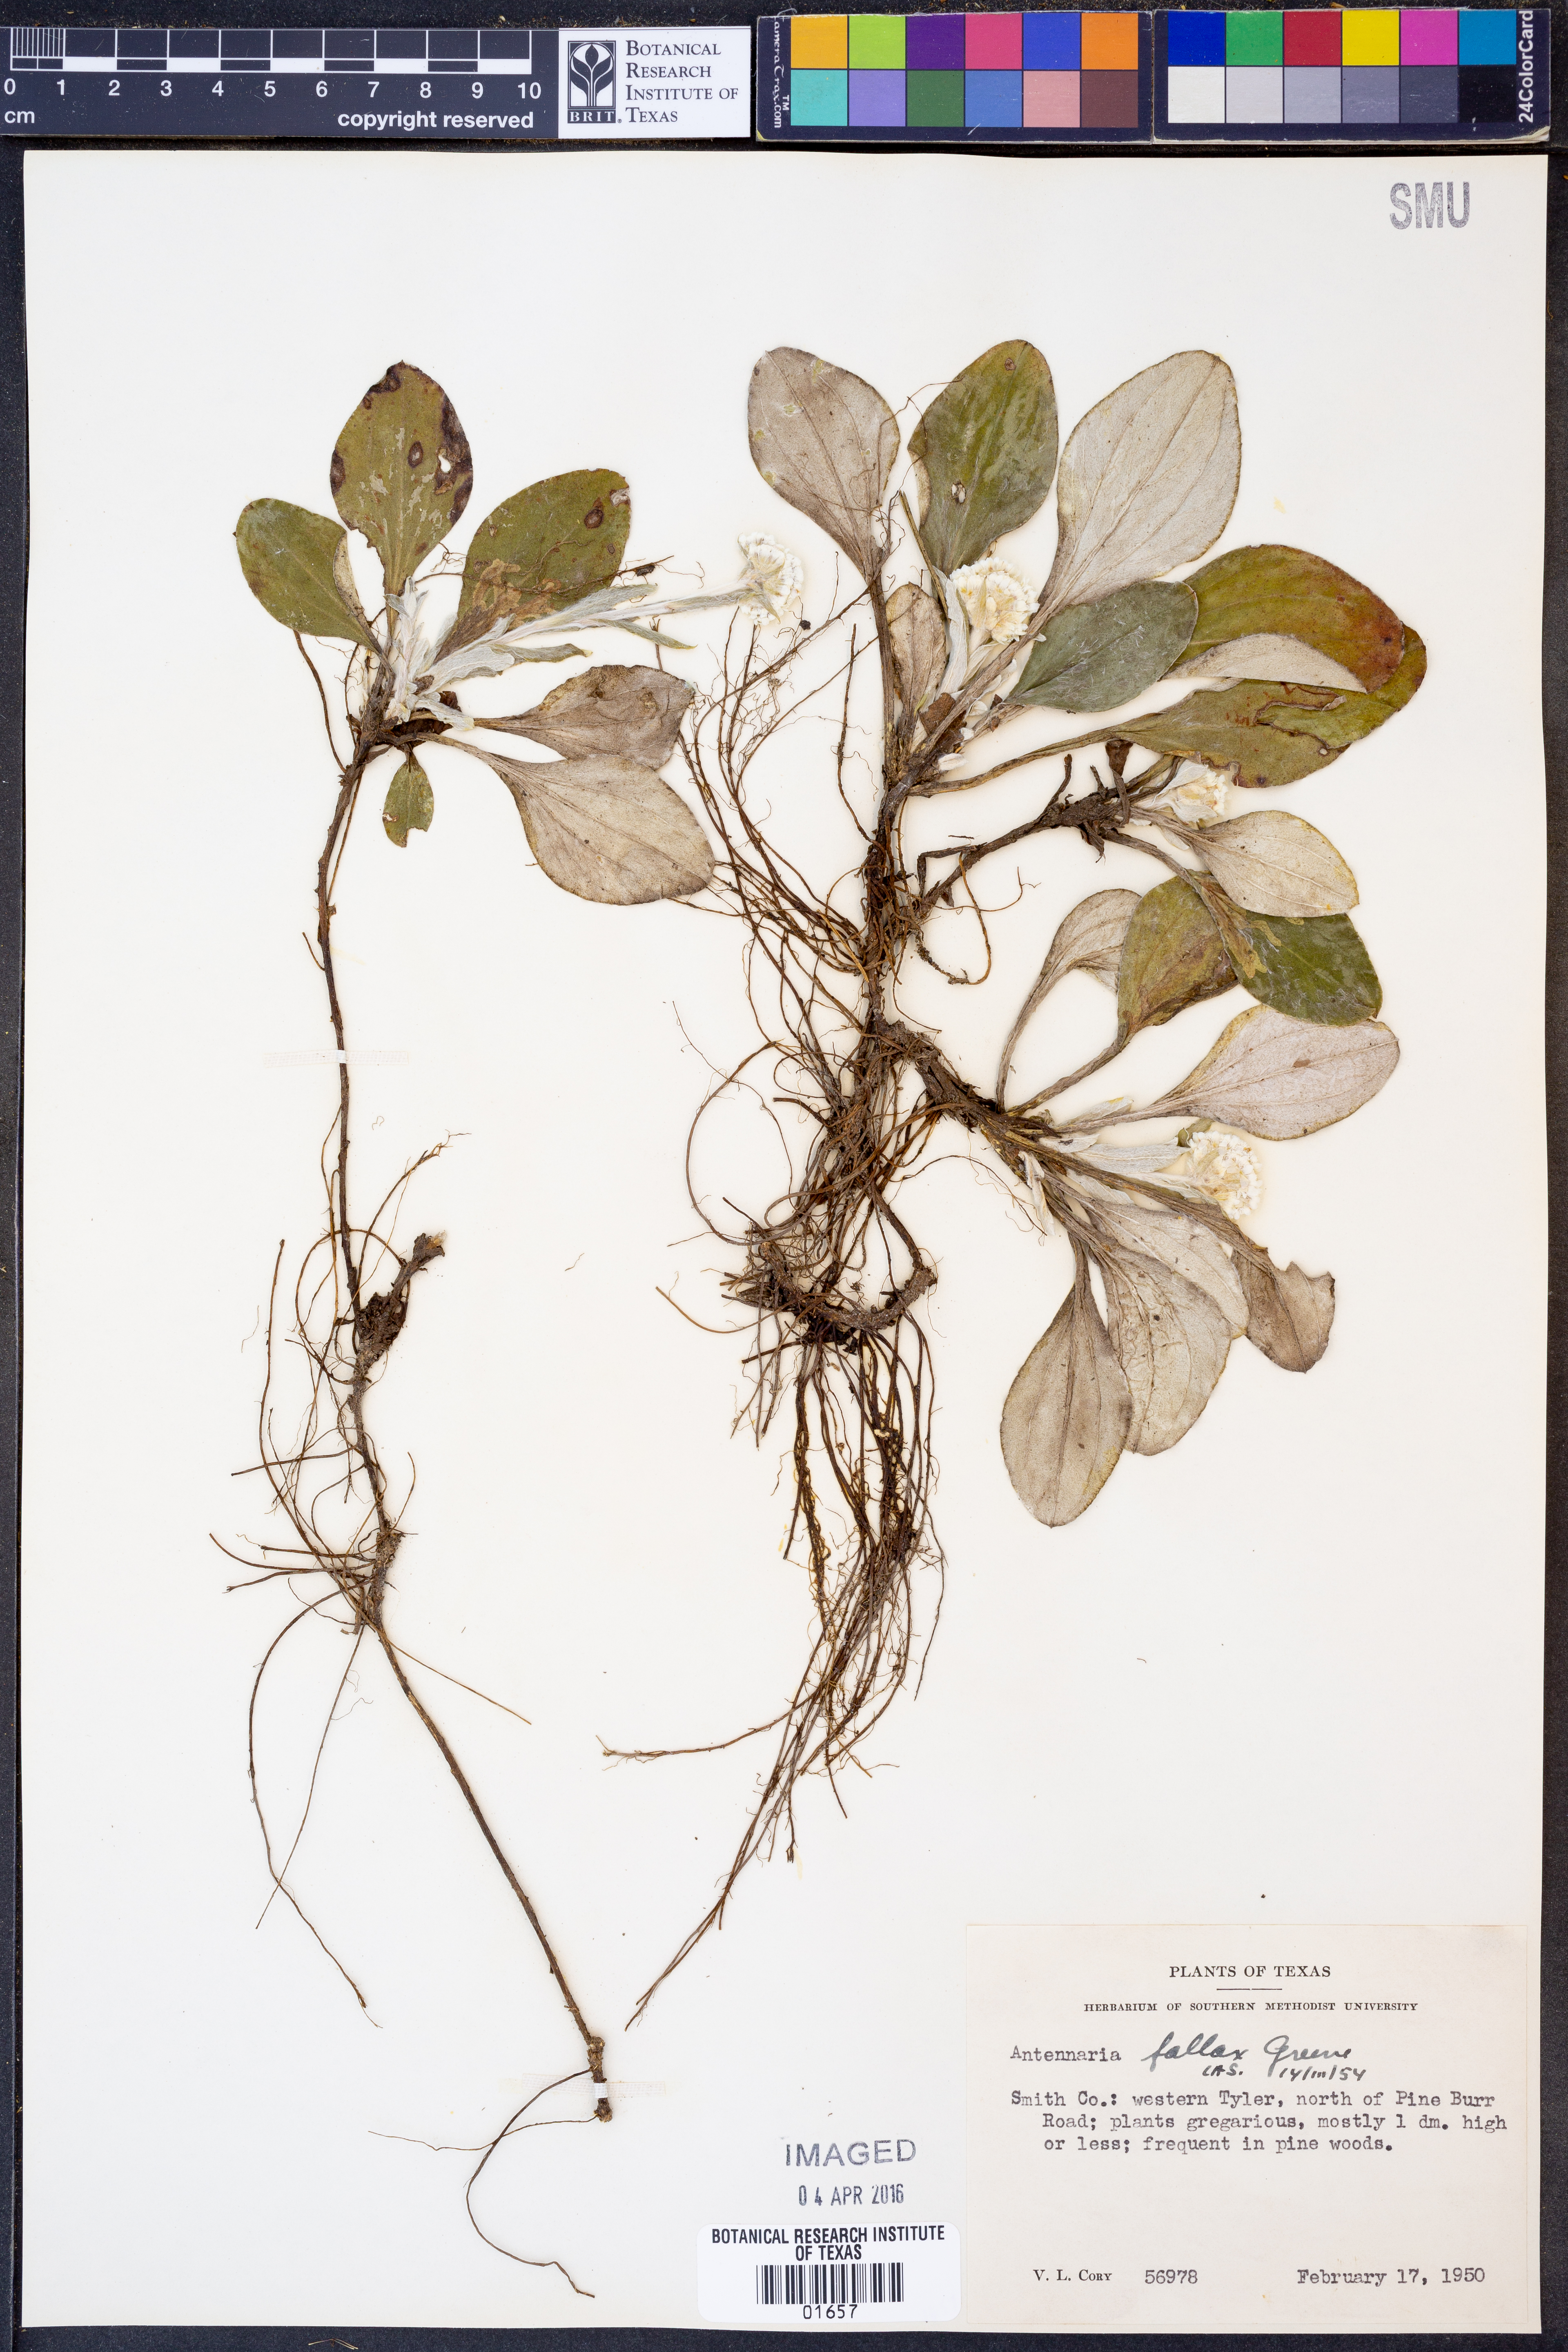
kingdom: Plantae
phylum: Tracheophyta
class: Magnoliopsida
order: Asterales
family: Asteraceae
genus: Antennaria
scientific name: Antennaria parlinii
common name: Parlin's pussytoes
